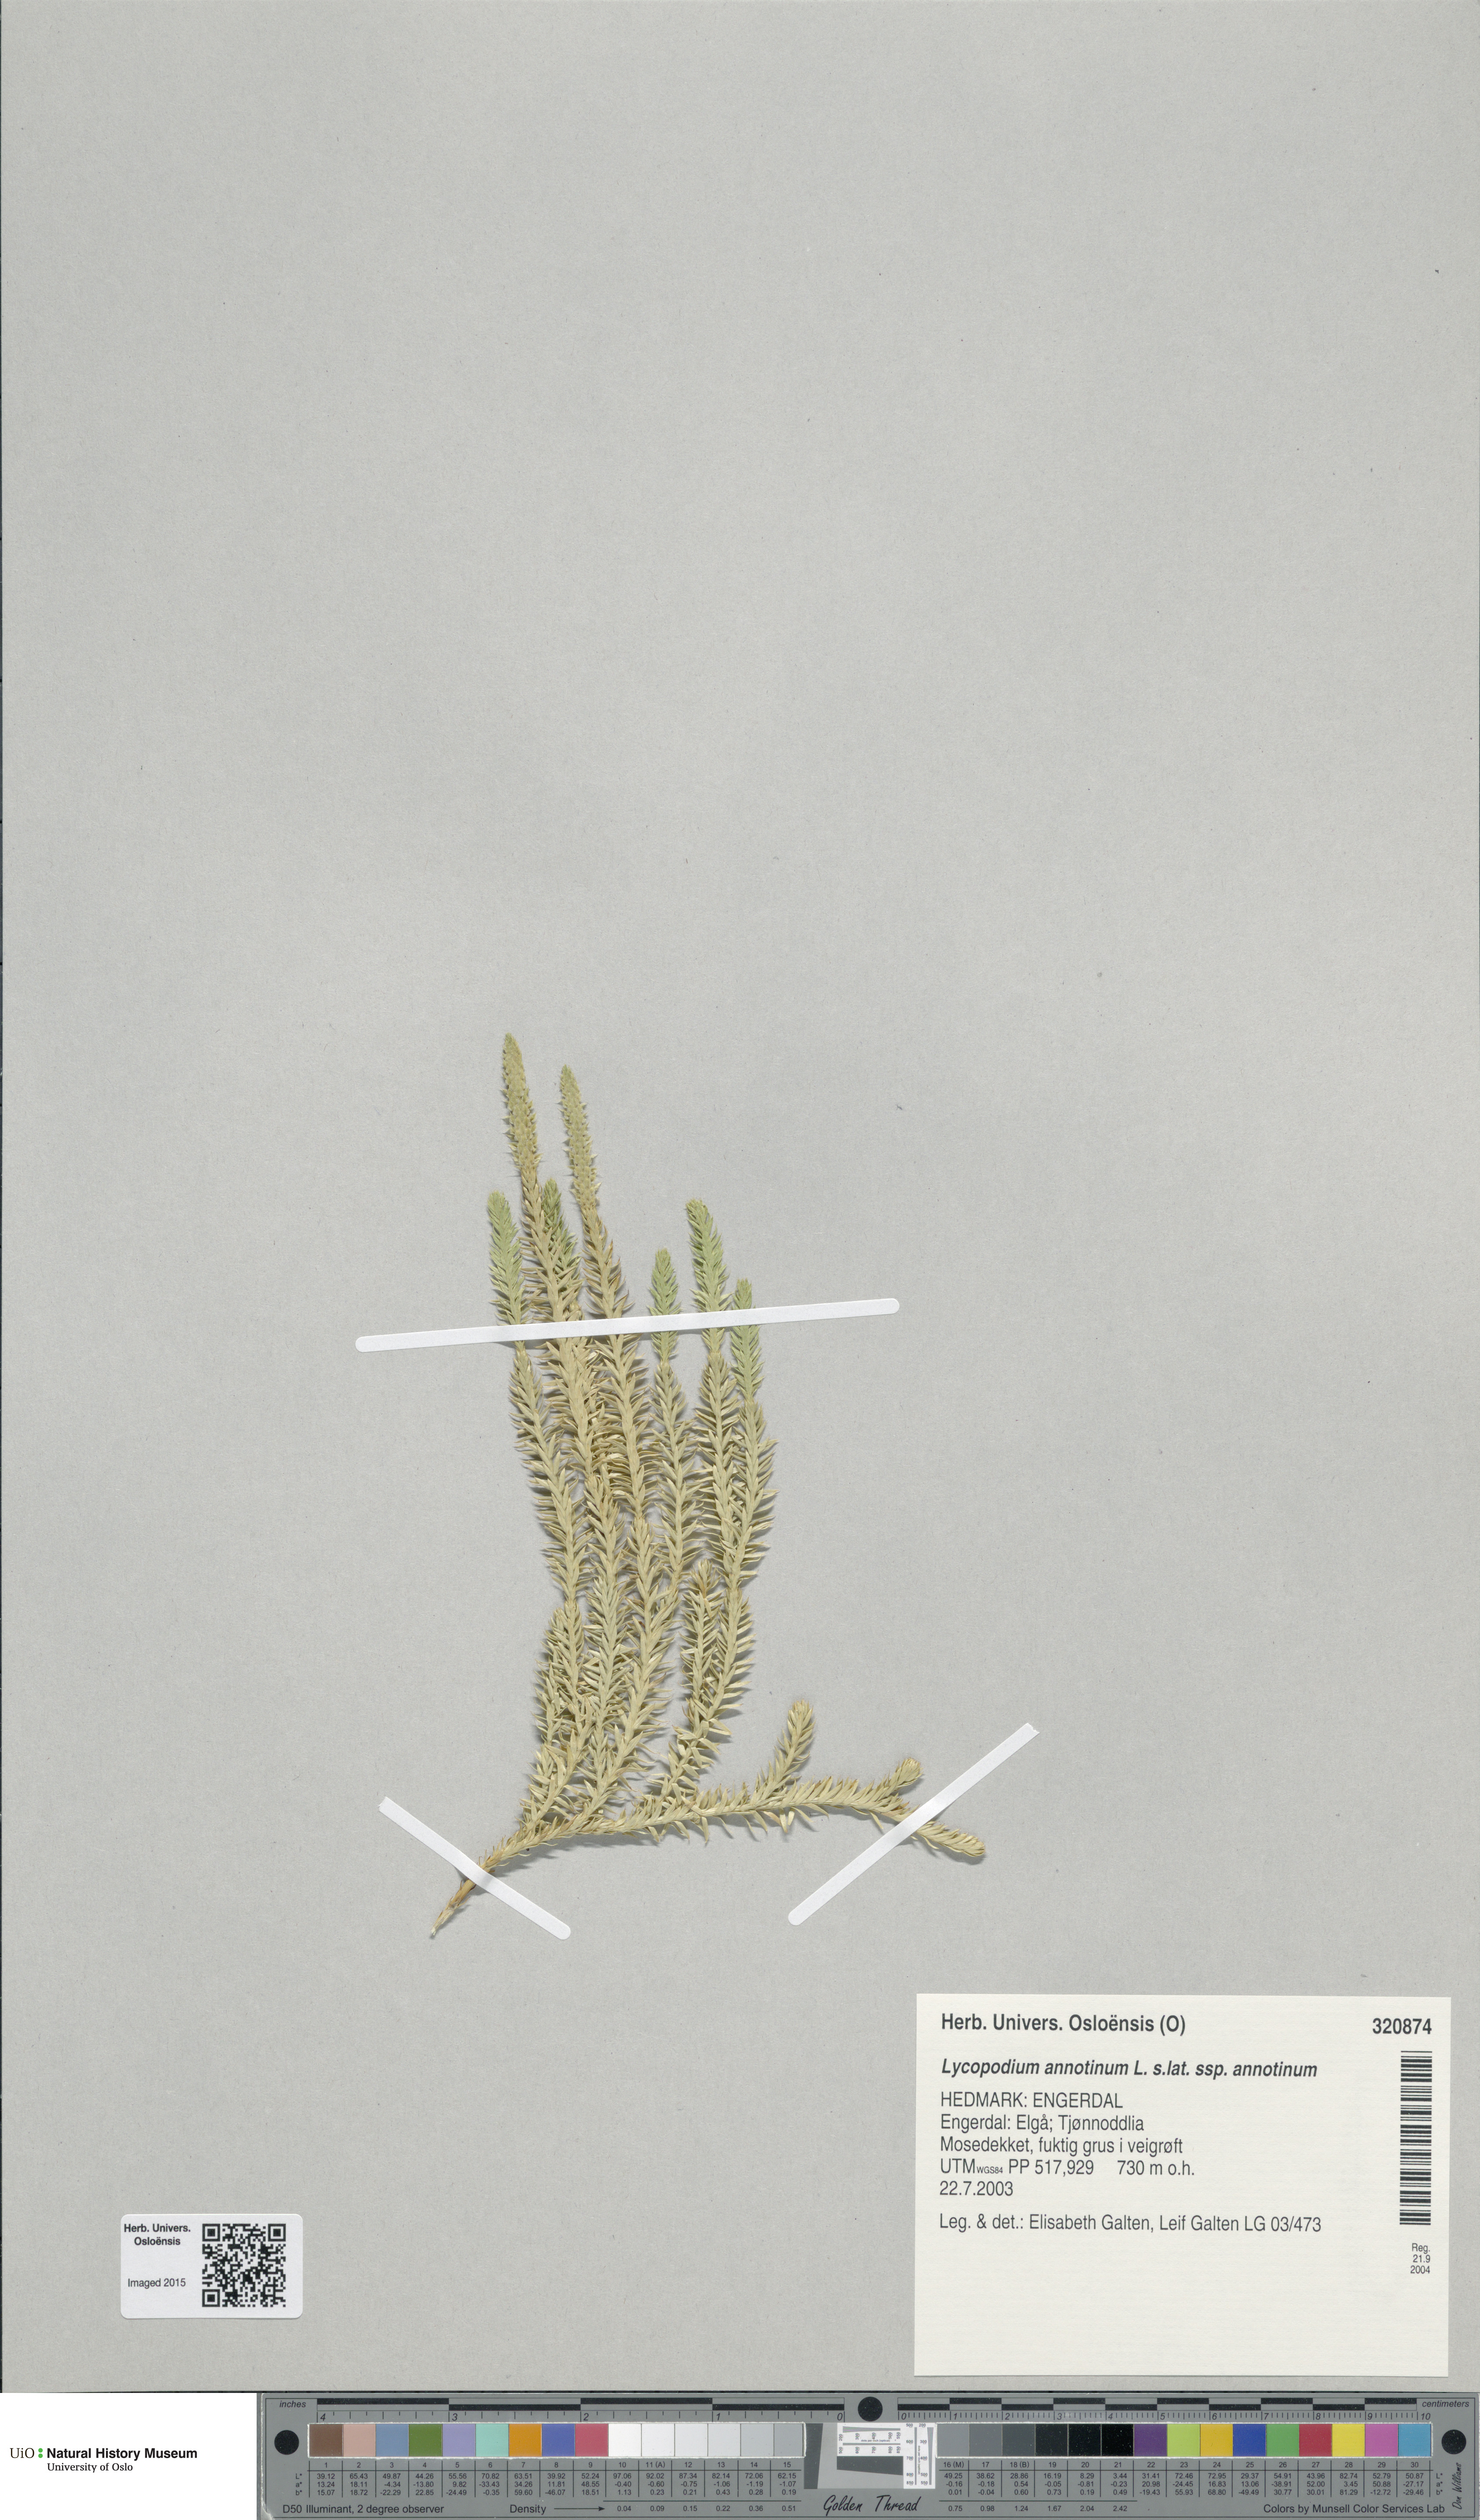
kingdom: Plantae
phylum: Tracheophyta
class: Lycopodiopsida
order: Lycopodiales
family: Lycopodiaceae
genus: Spinulum
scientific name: Spinulum annotinum
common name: Interrupted club-moss
